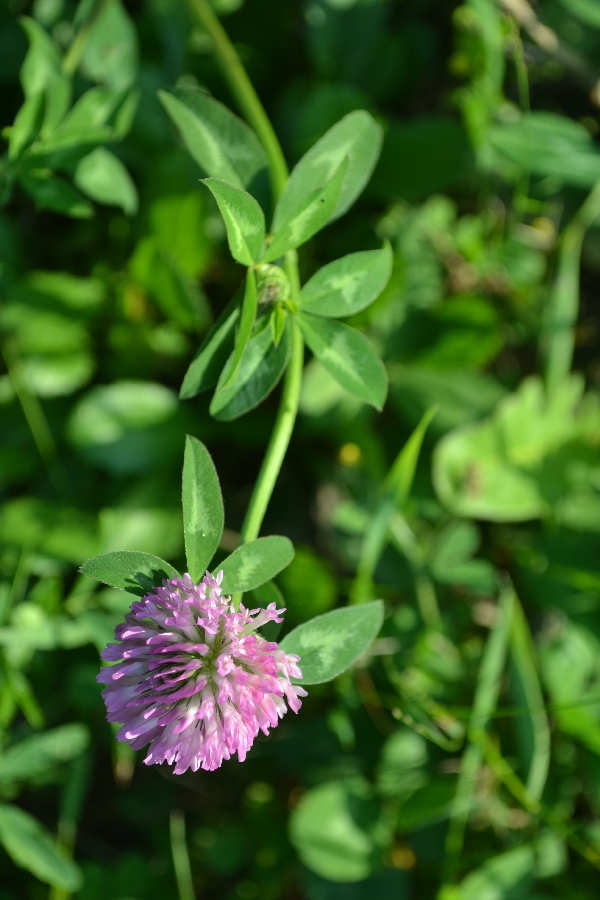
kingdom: Plantae
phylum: Tracheophyta
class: Magnoliopsida
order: Fabales
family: Fabaceae
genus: Trifolium
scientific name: Trifolium pratense
